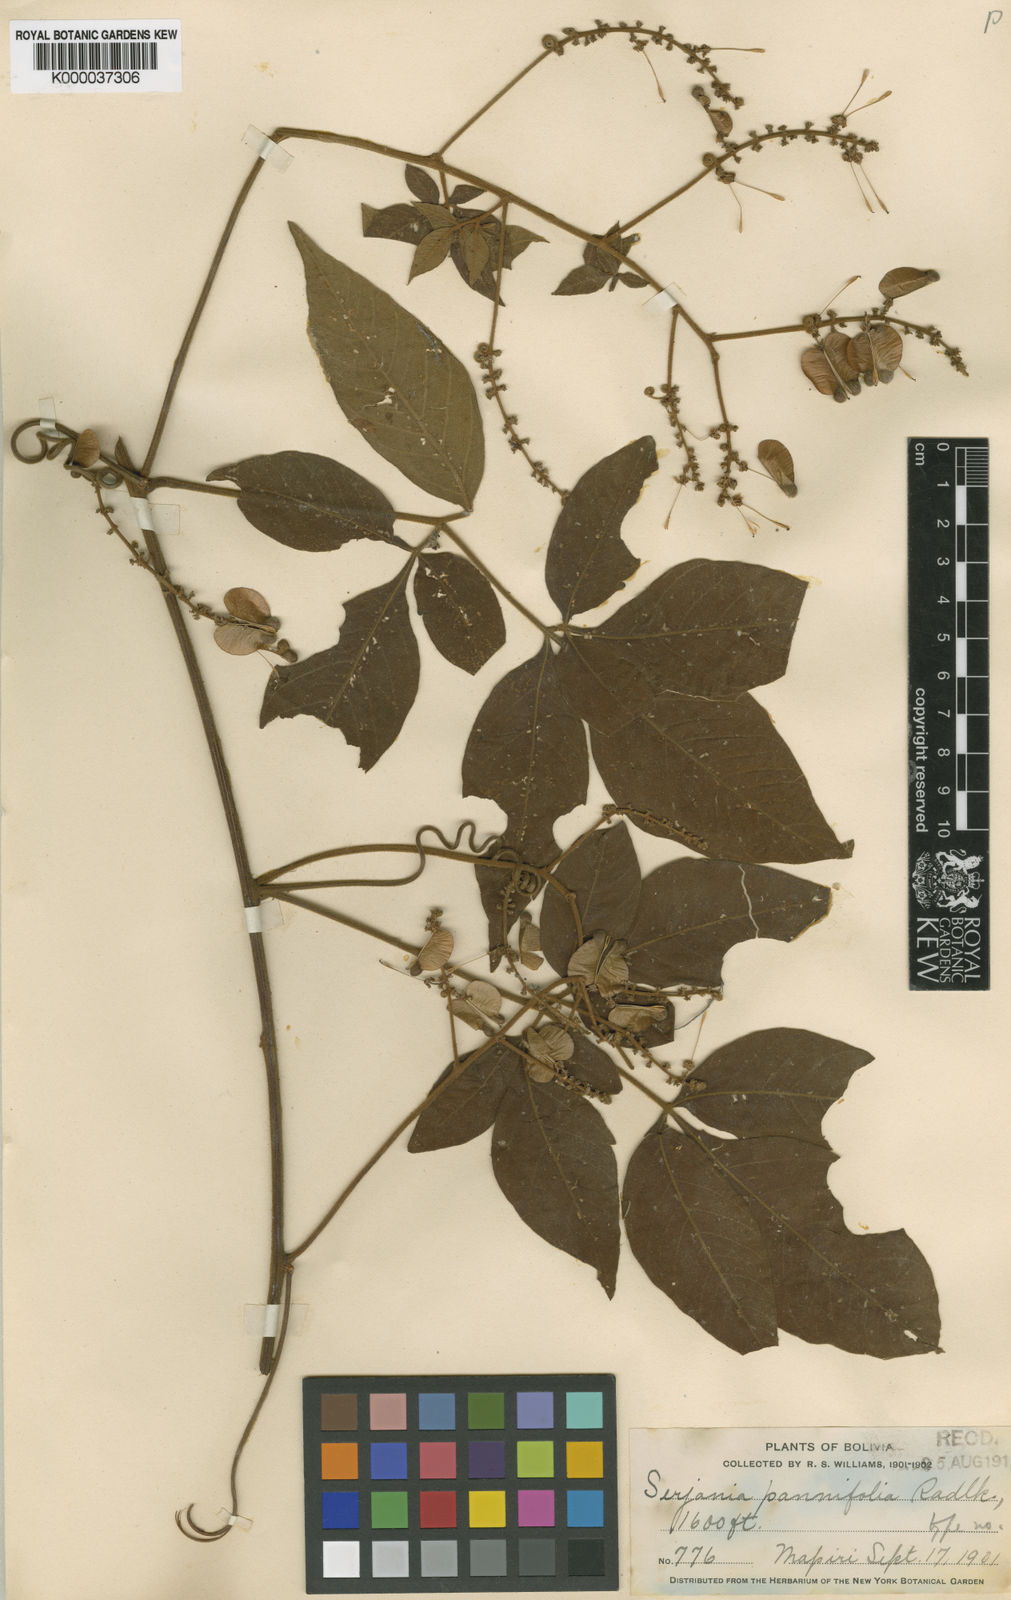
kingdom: Plantae
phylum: Tracheophyta
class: Magnoliopsida
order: Sapindales
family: Sapindaceae
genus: Serjania
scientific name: Serjania pannifolia
